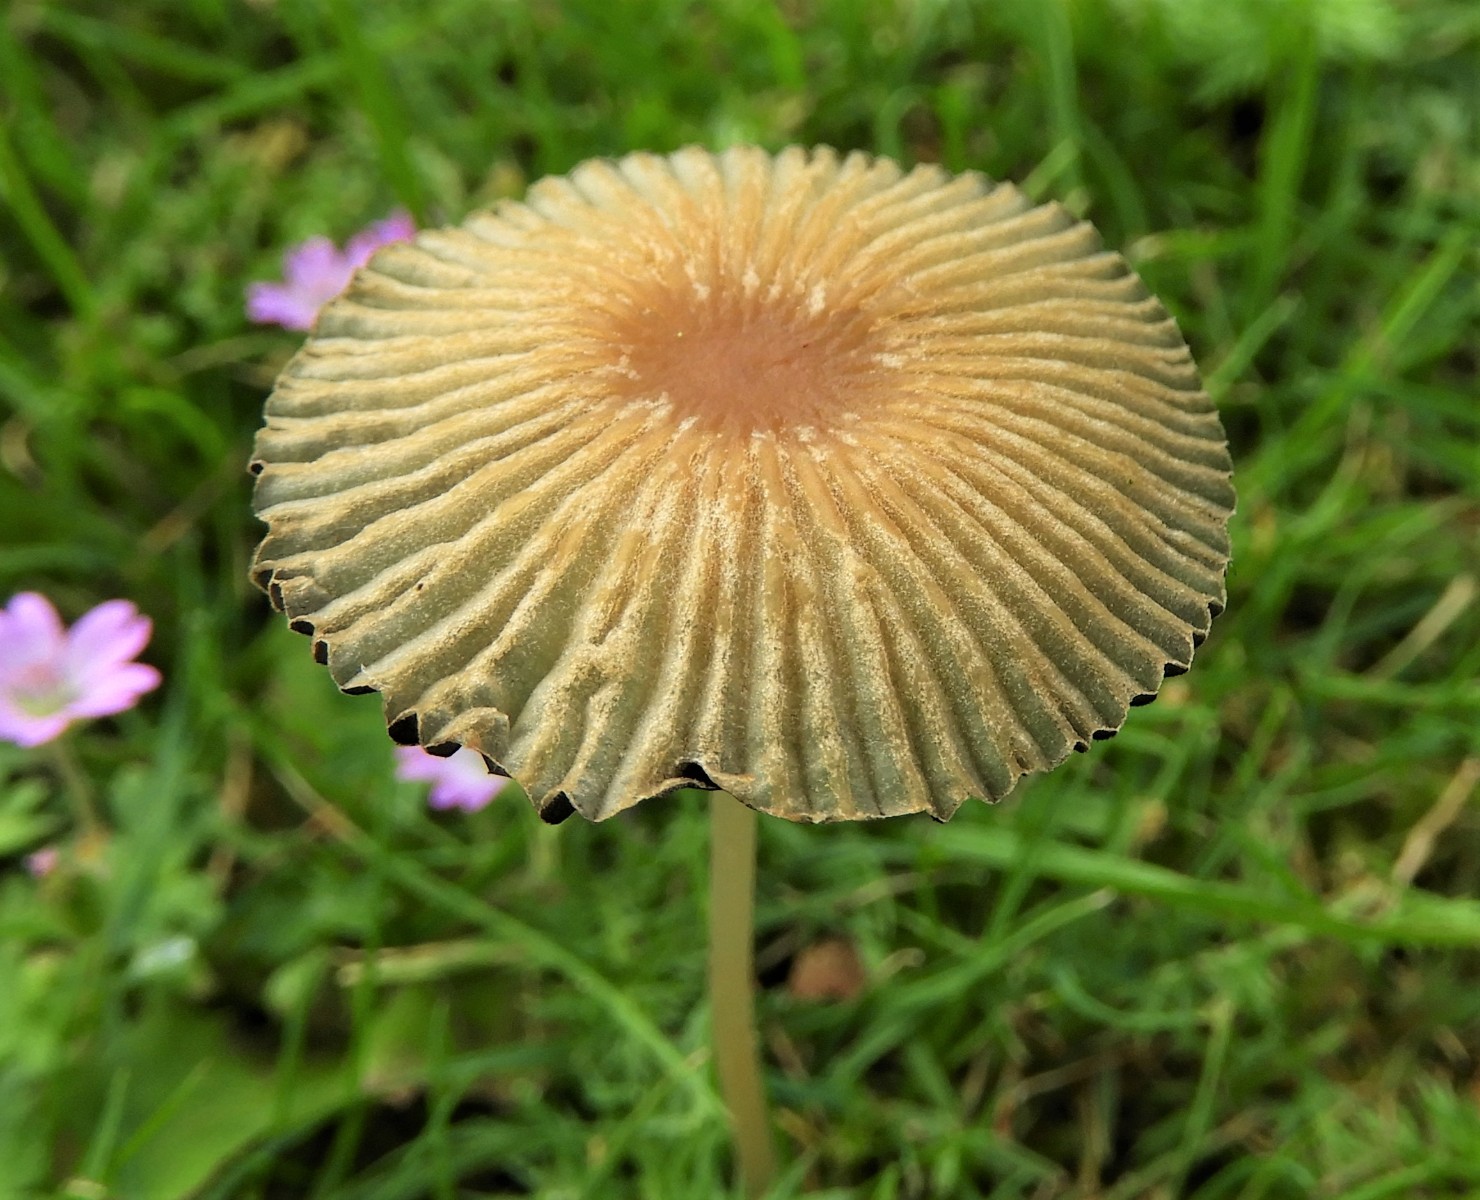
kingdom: Fungi
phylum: Basidiomycota
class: Agaricomycetes
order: Agaricales
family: Psathyrellaceae
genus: Parasola
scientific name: Parasola
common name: hjulhat
